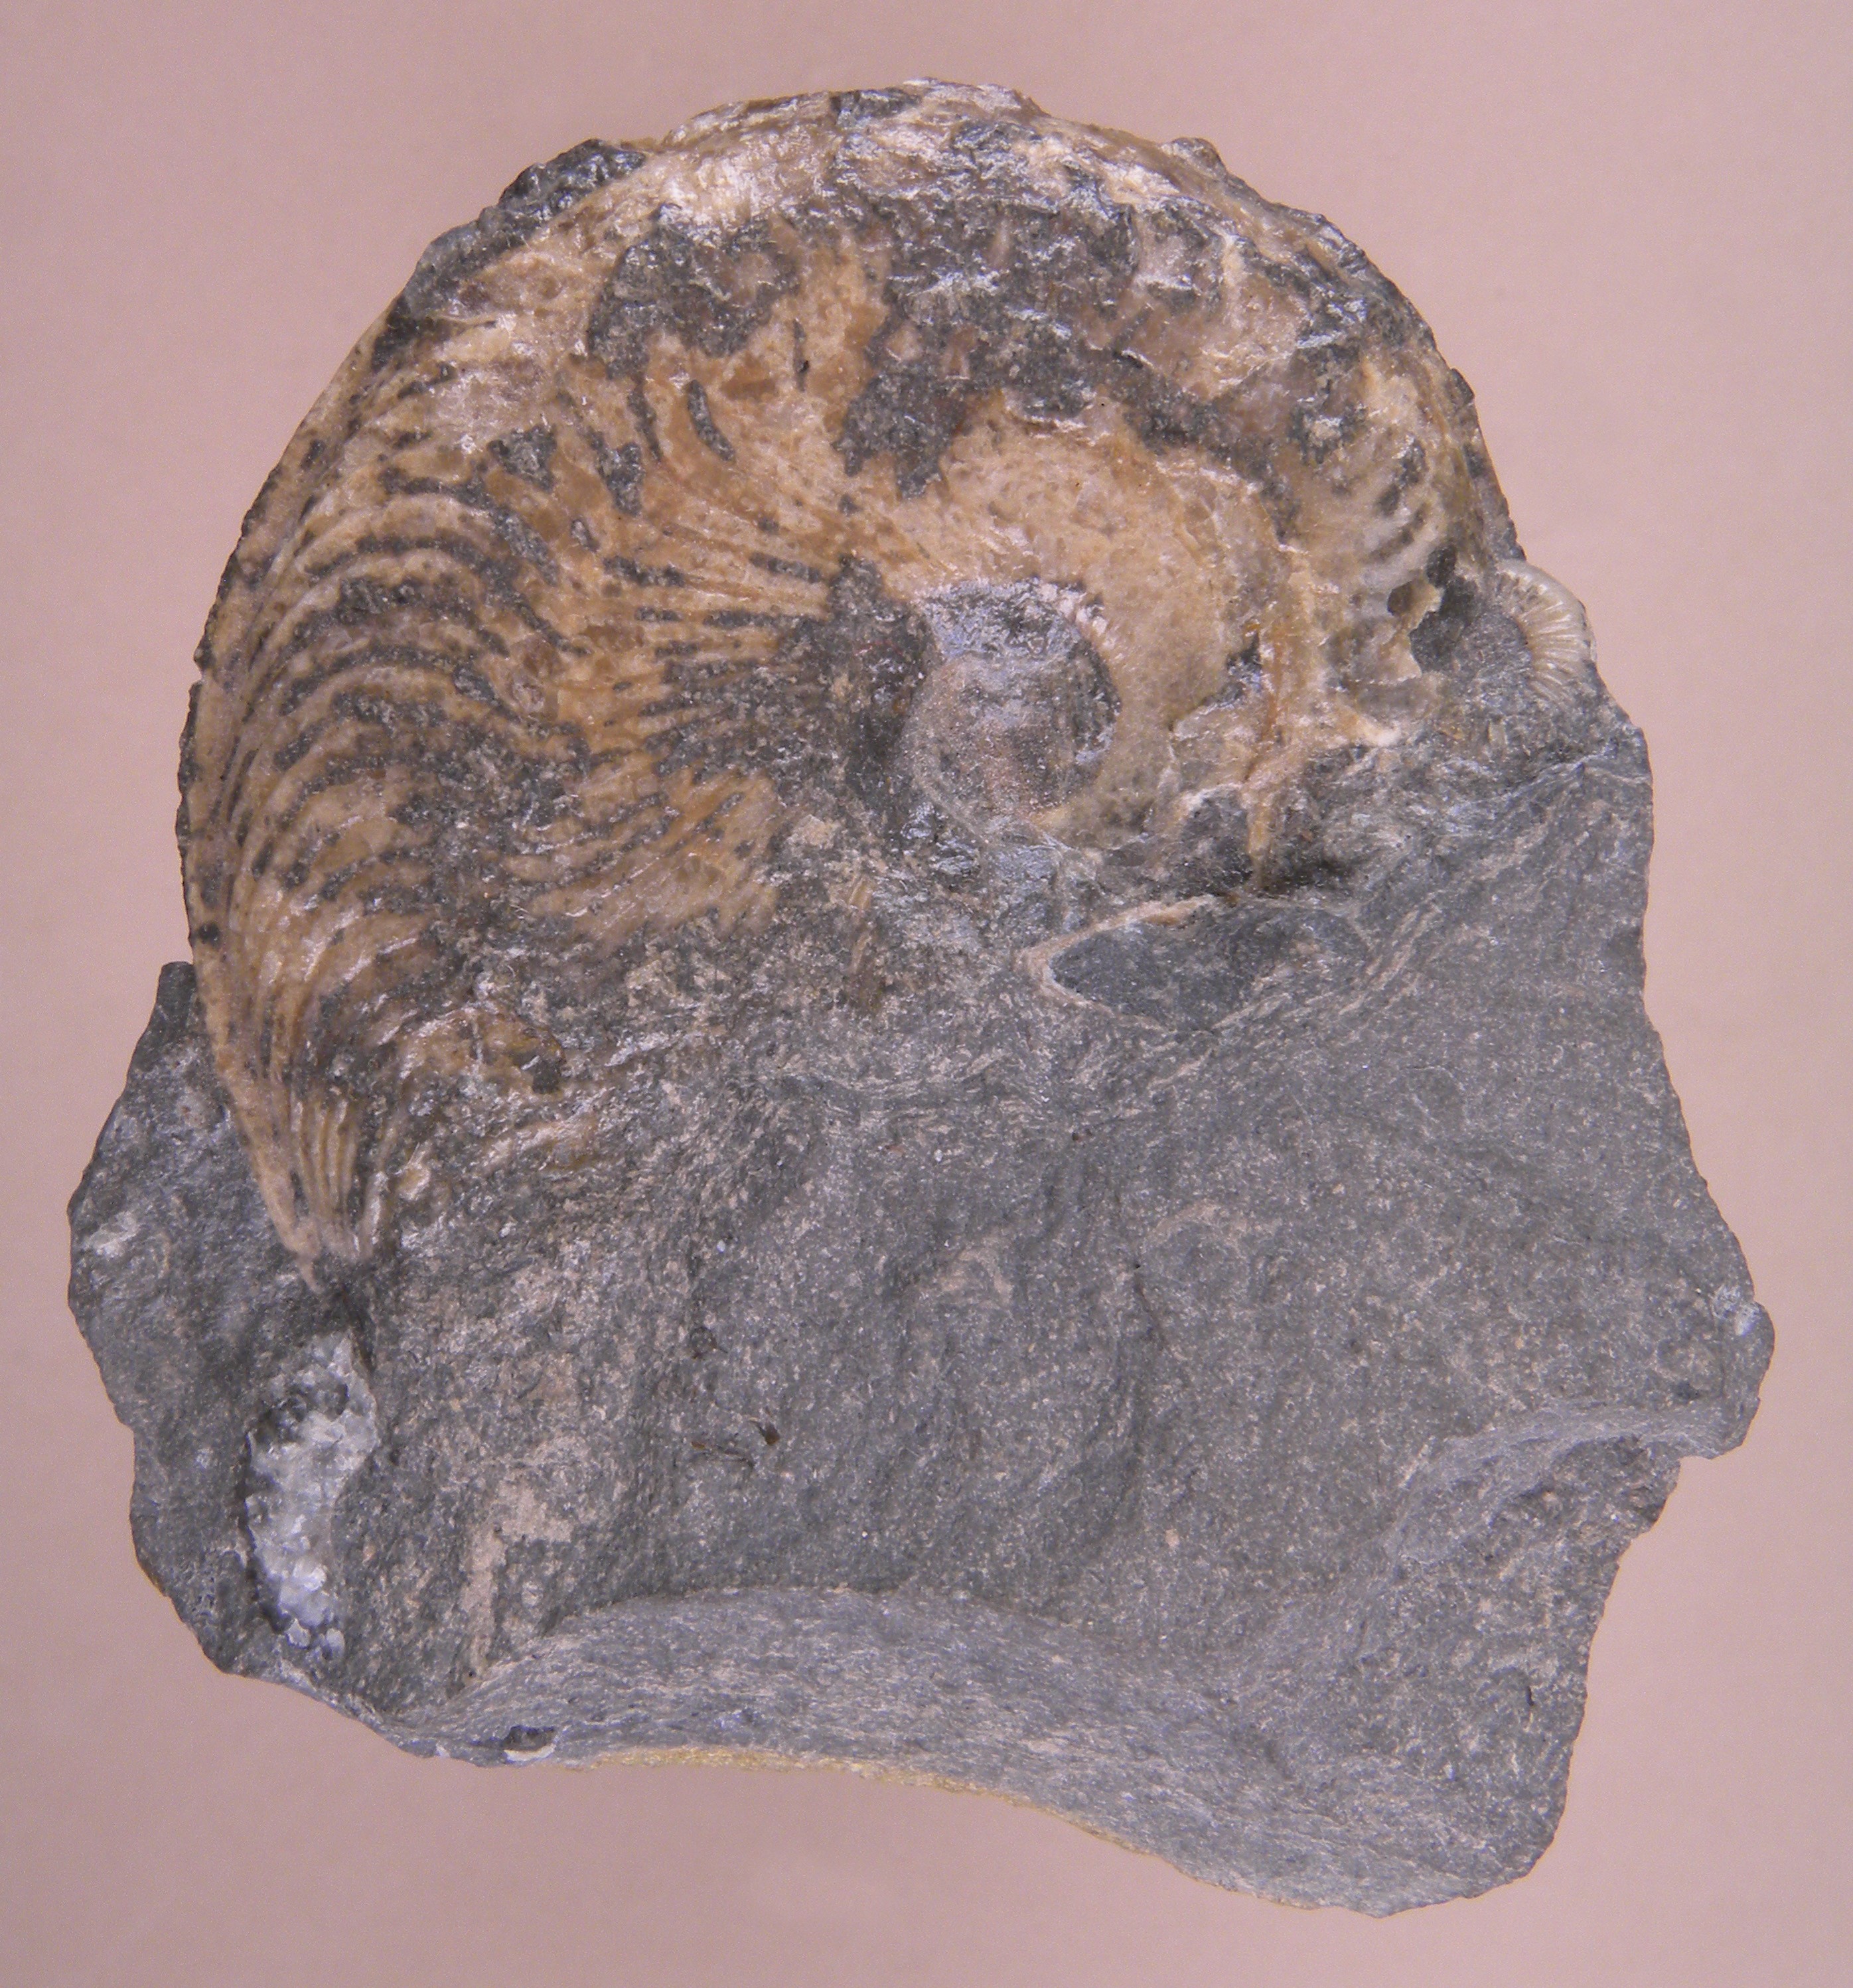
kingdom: Animalia
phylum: Mollusca
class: Cephalopoda
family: Hildoceratidae
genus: Harpoceras
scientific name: Harpoceras serpentinum
